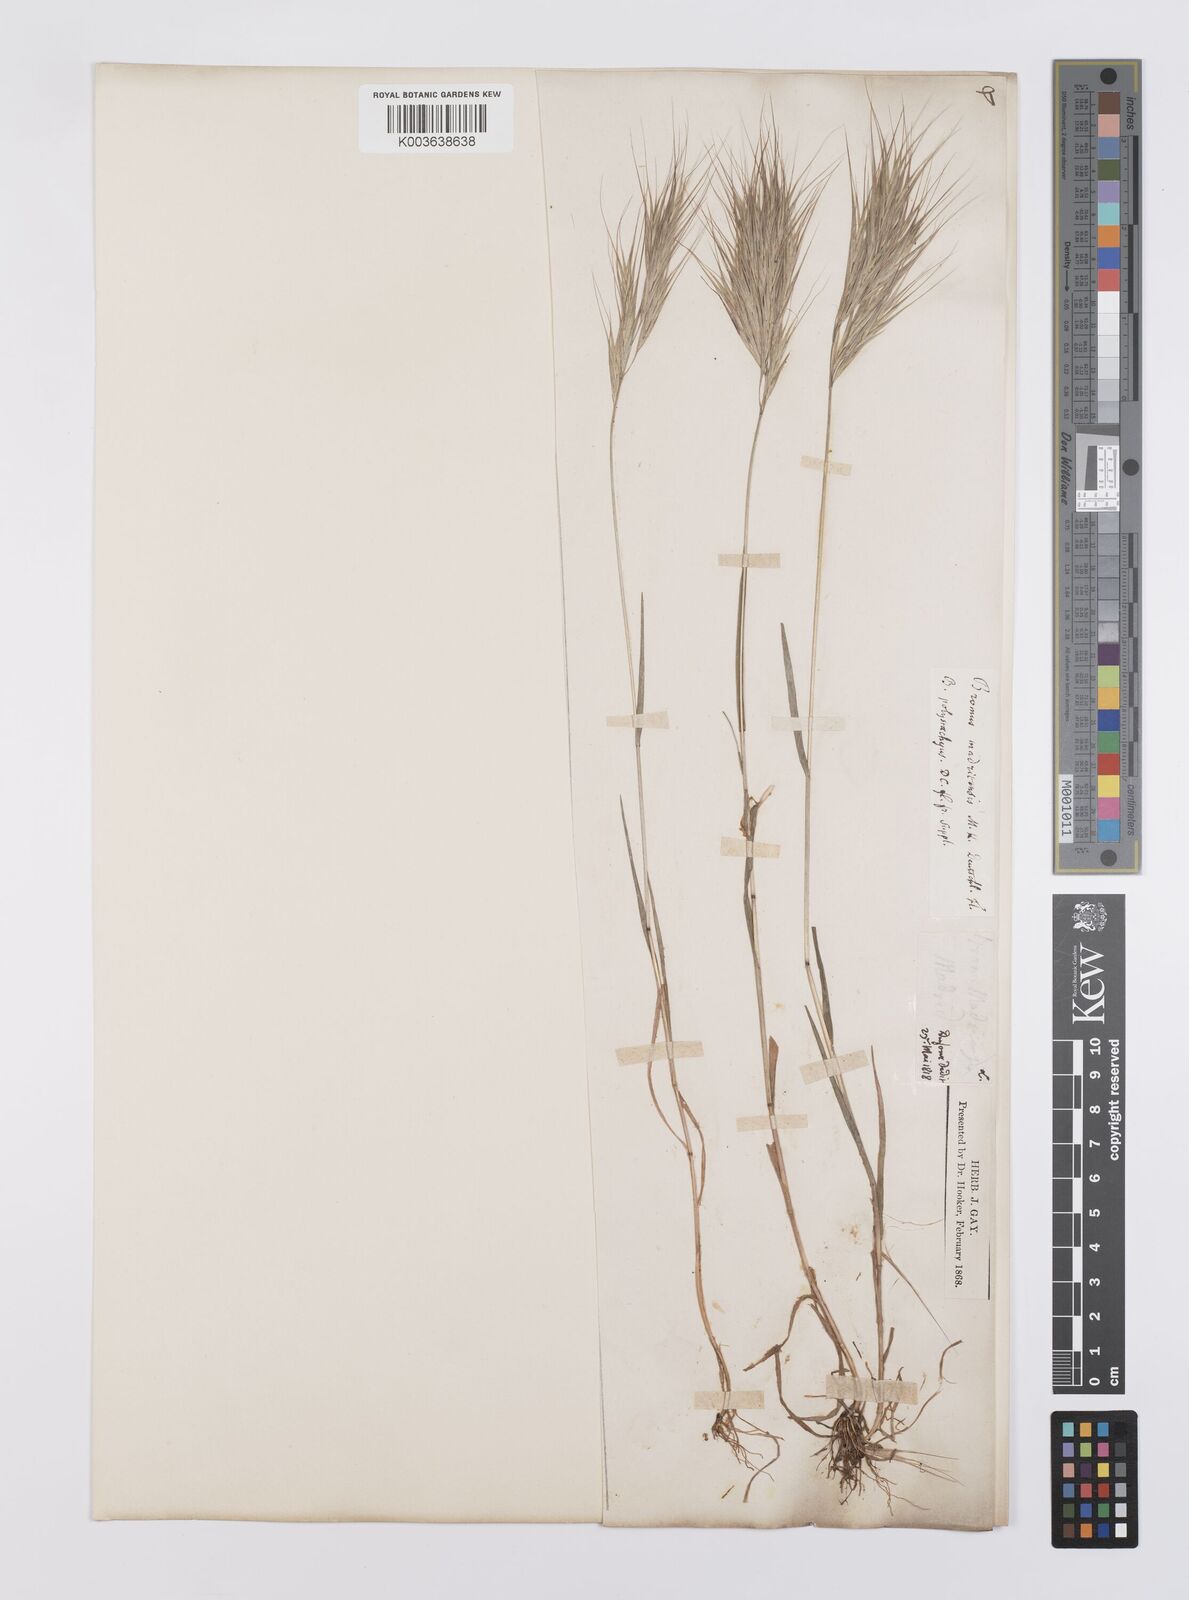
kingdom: Plantae
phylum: Tracheophyta
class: Liliopsida
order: Poales
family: Poaceae
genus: Bromus
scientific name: Bromus madritensis
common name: Compact brome
